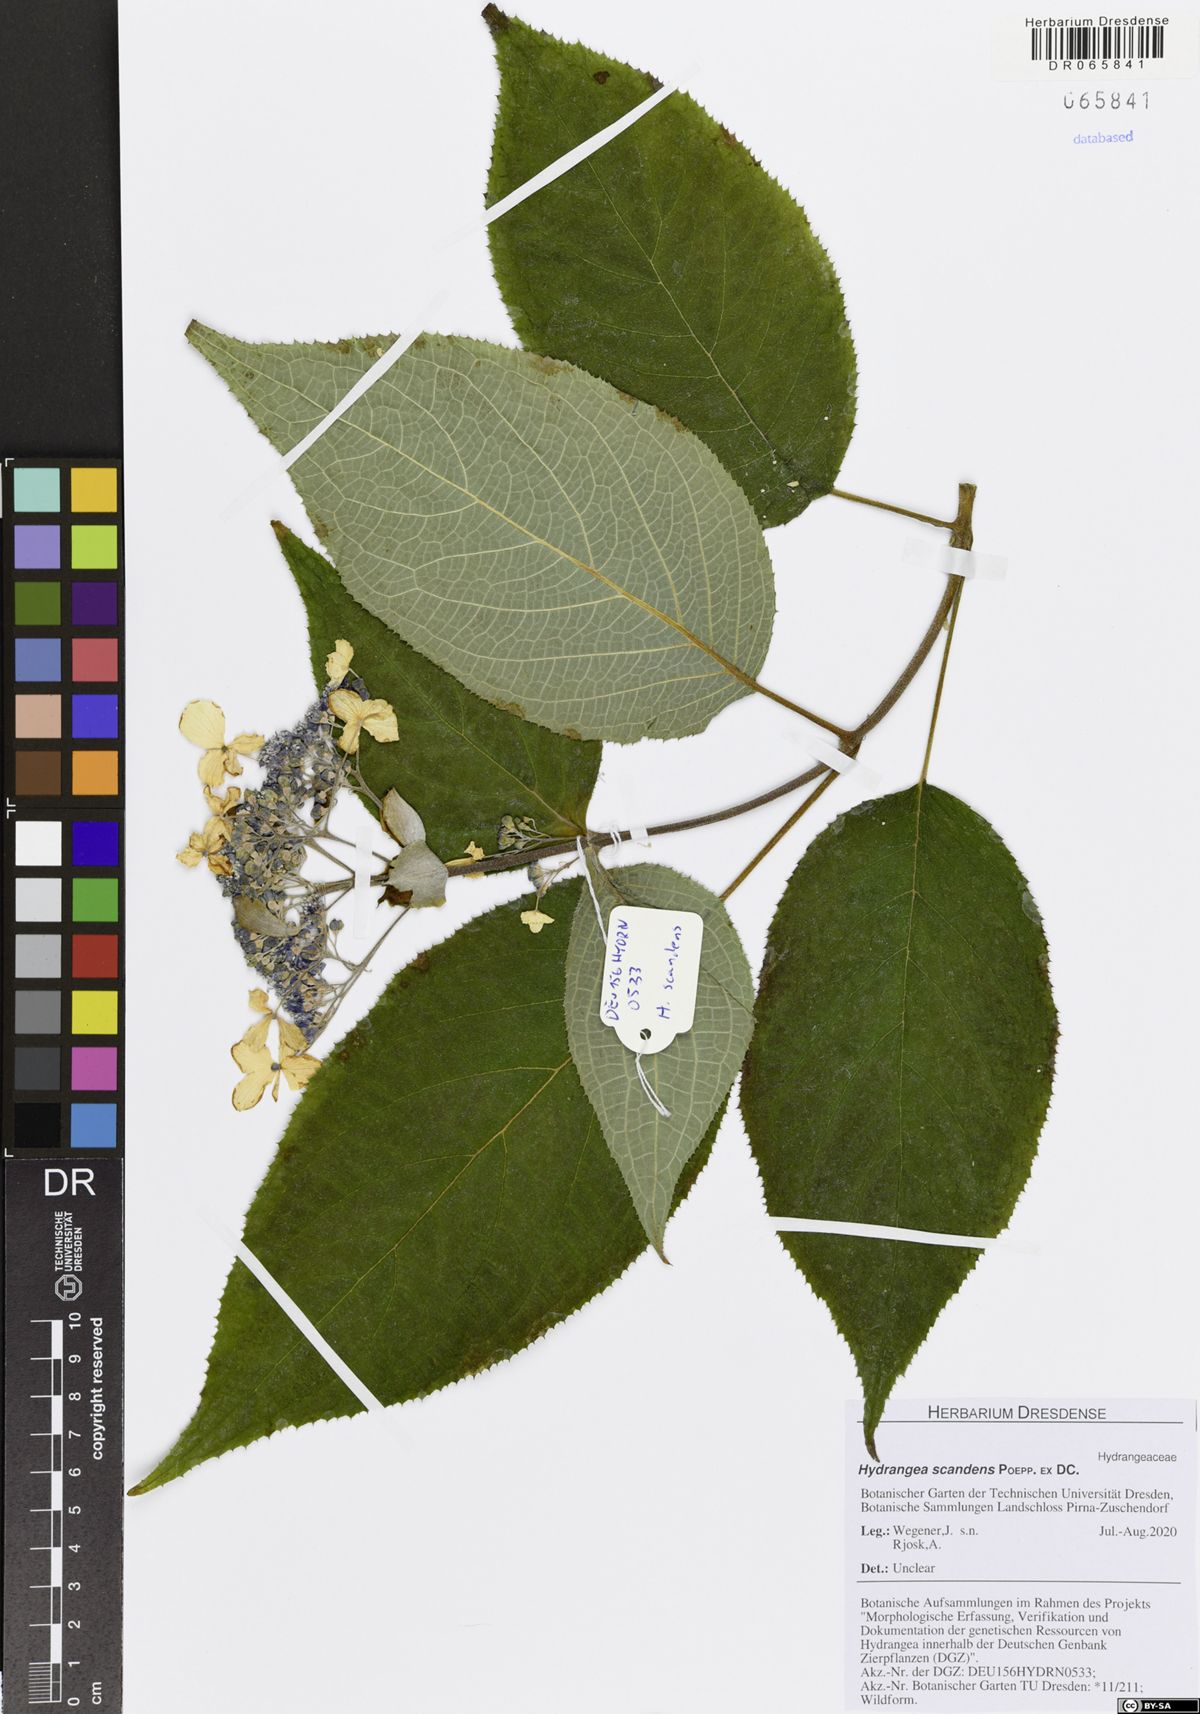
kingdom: Plantae
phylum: Tracheophyta
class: Magnoliopsida
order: Cornales
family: Hydrangeaceae
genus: Hydrangea
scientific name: Hydrangea serratifolia
